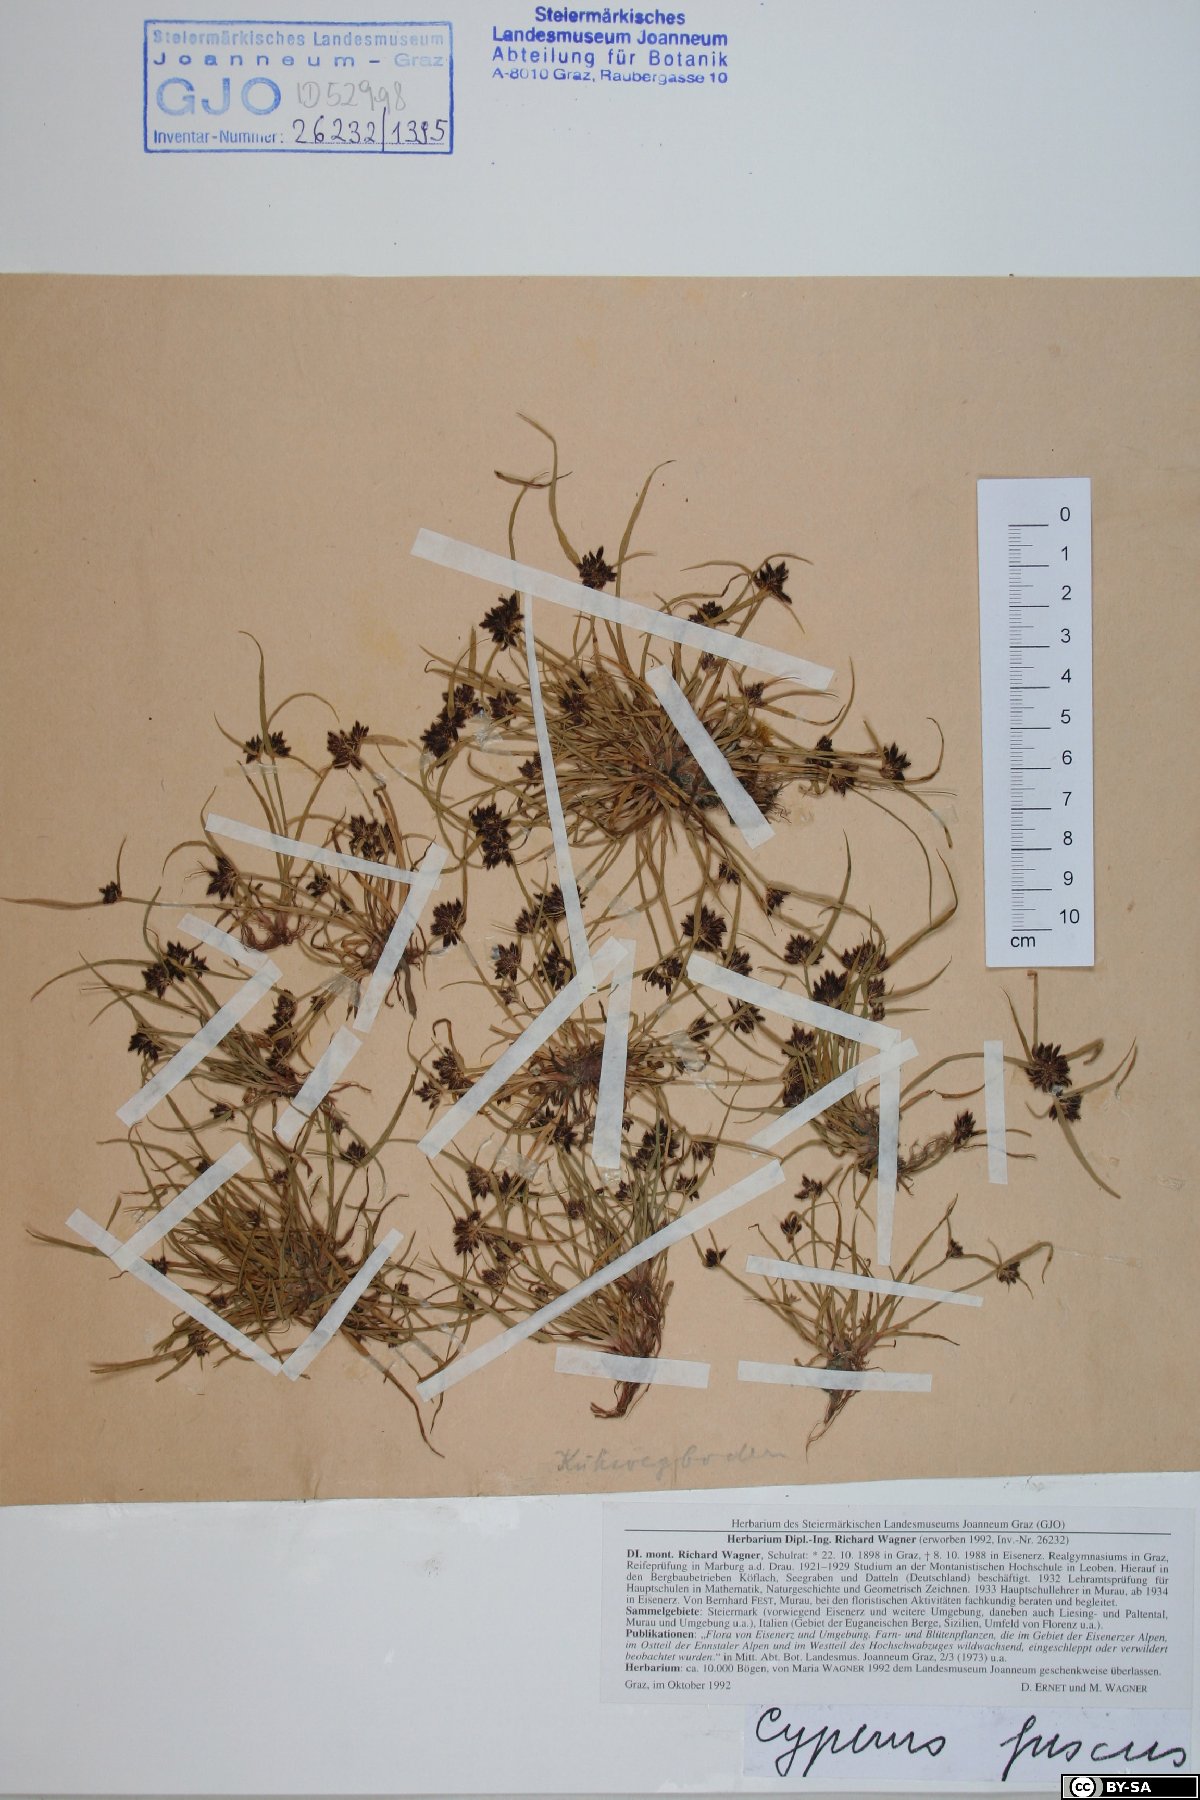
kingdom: Plantae
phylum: Tracheophyta
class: Liliopsida
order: Poales
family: Cyperaceae
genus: Cyperus
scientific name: Cyperus fuscus
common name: Brown galingale
